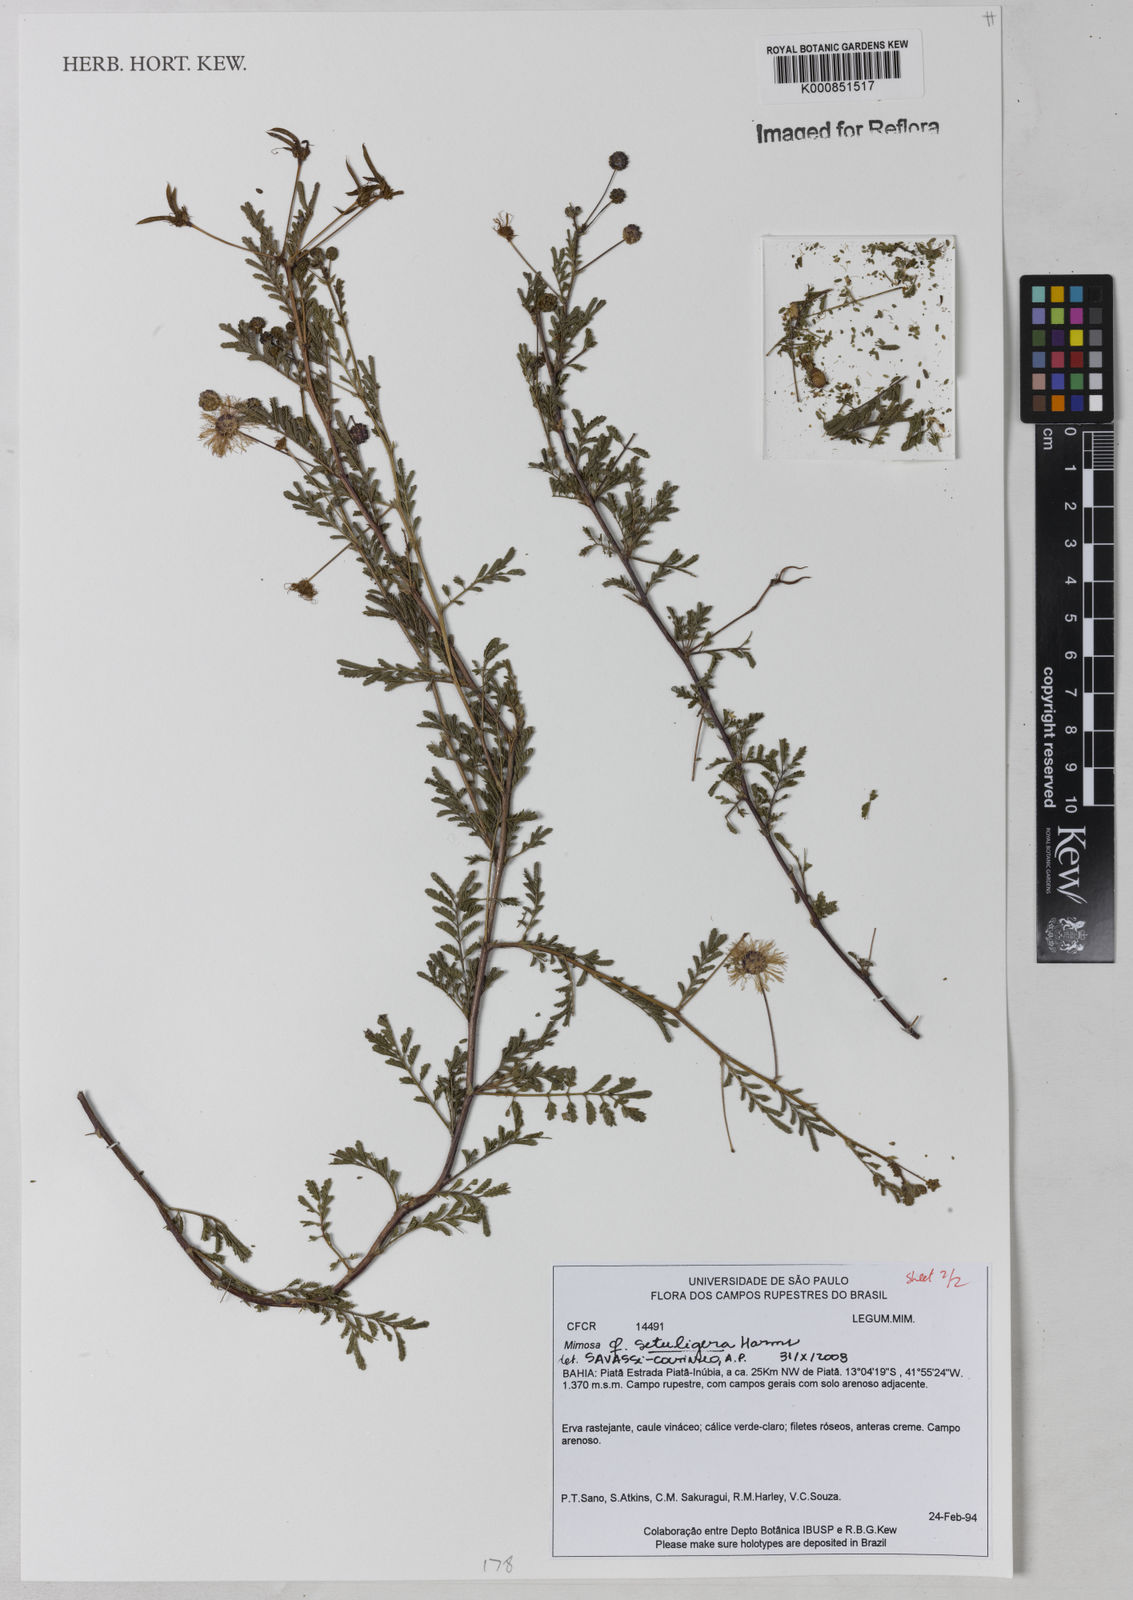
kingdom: Plantae
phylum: Tracheophyta
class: Magnoliopsida
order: Fabales
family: Fabaceae
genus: Mimosa
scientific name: Mimosa setuligera
